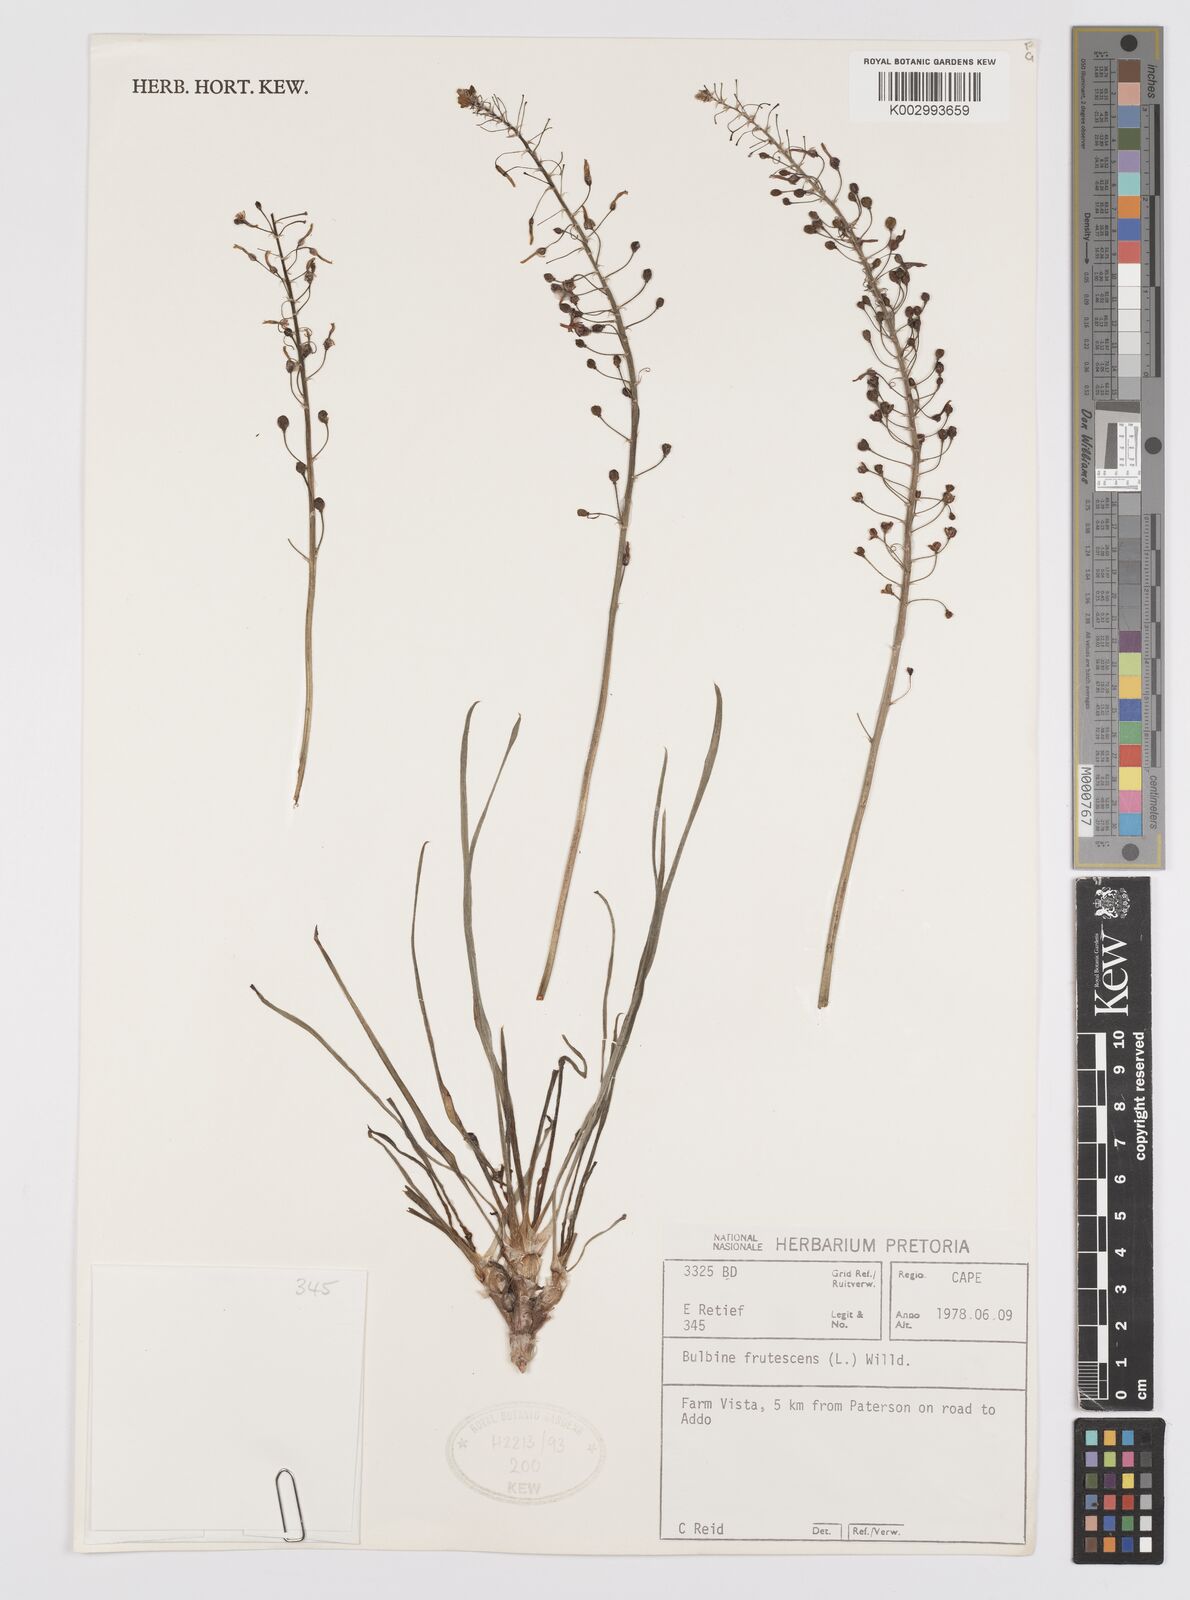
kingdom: Plantae
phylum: Tracheophyta
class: Liliopsida
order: Asparagales
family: Asphodelaceae
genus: Bulbine
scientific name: Bulbine frutescens
